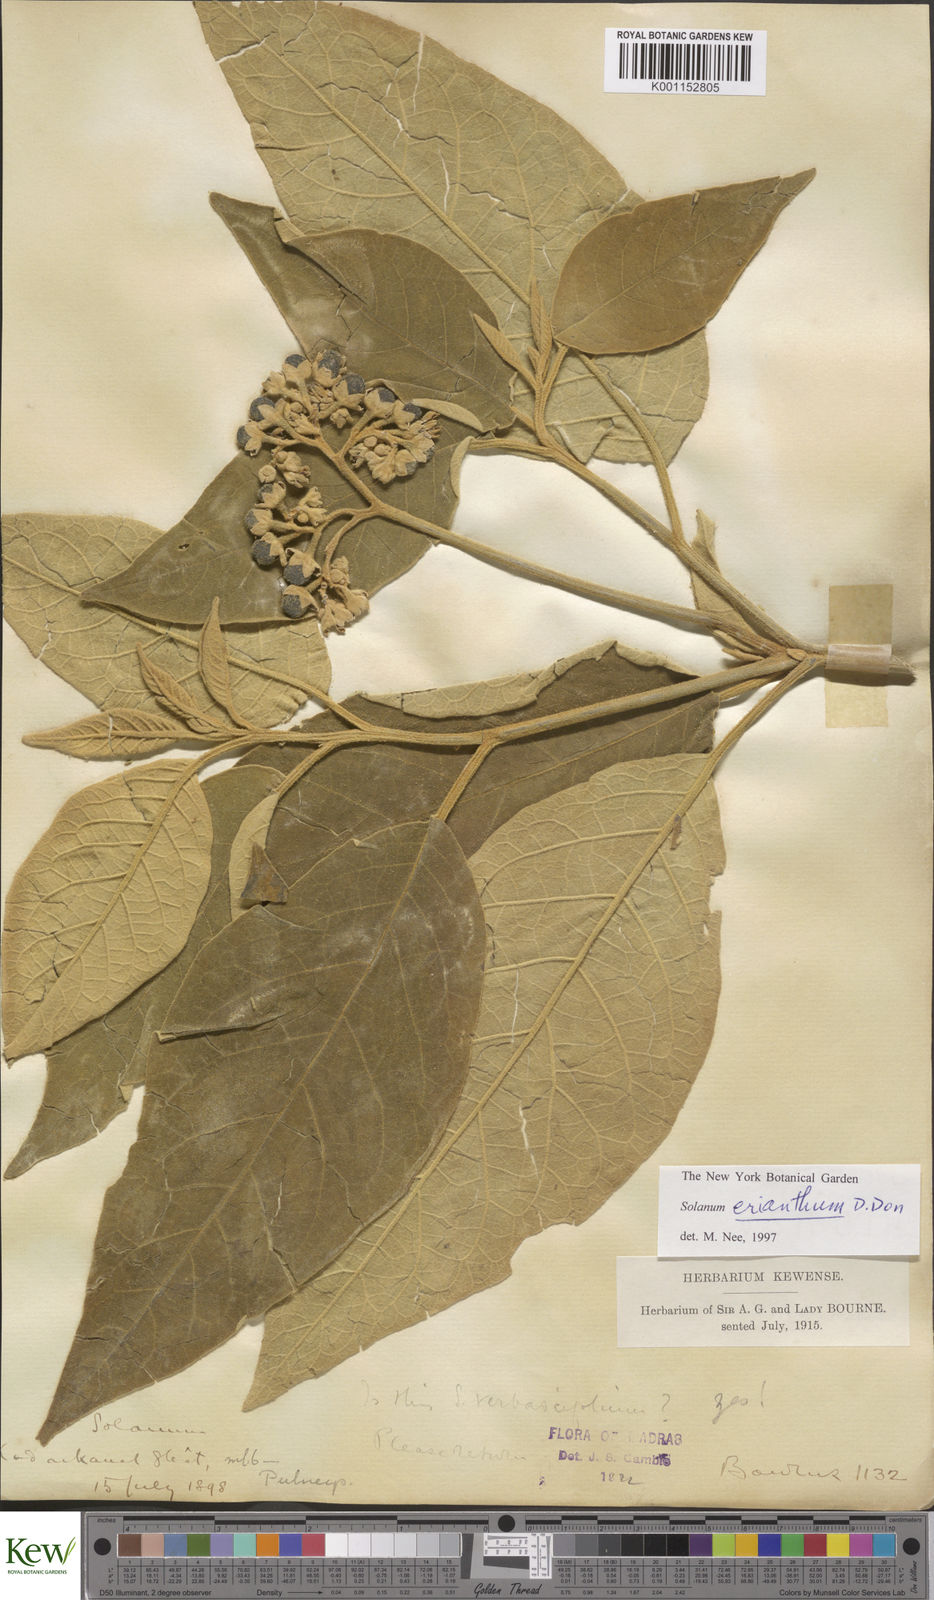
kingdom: Plantae
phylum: Tracheophyta
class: Magnoliopsida
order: Solanales
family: Solanaceae
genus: Solanum
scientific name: Solanum erianthum
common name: Tobacco-tree
